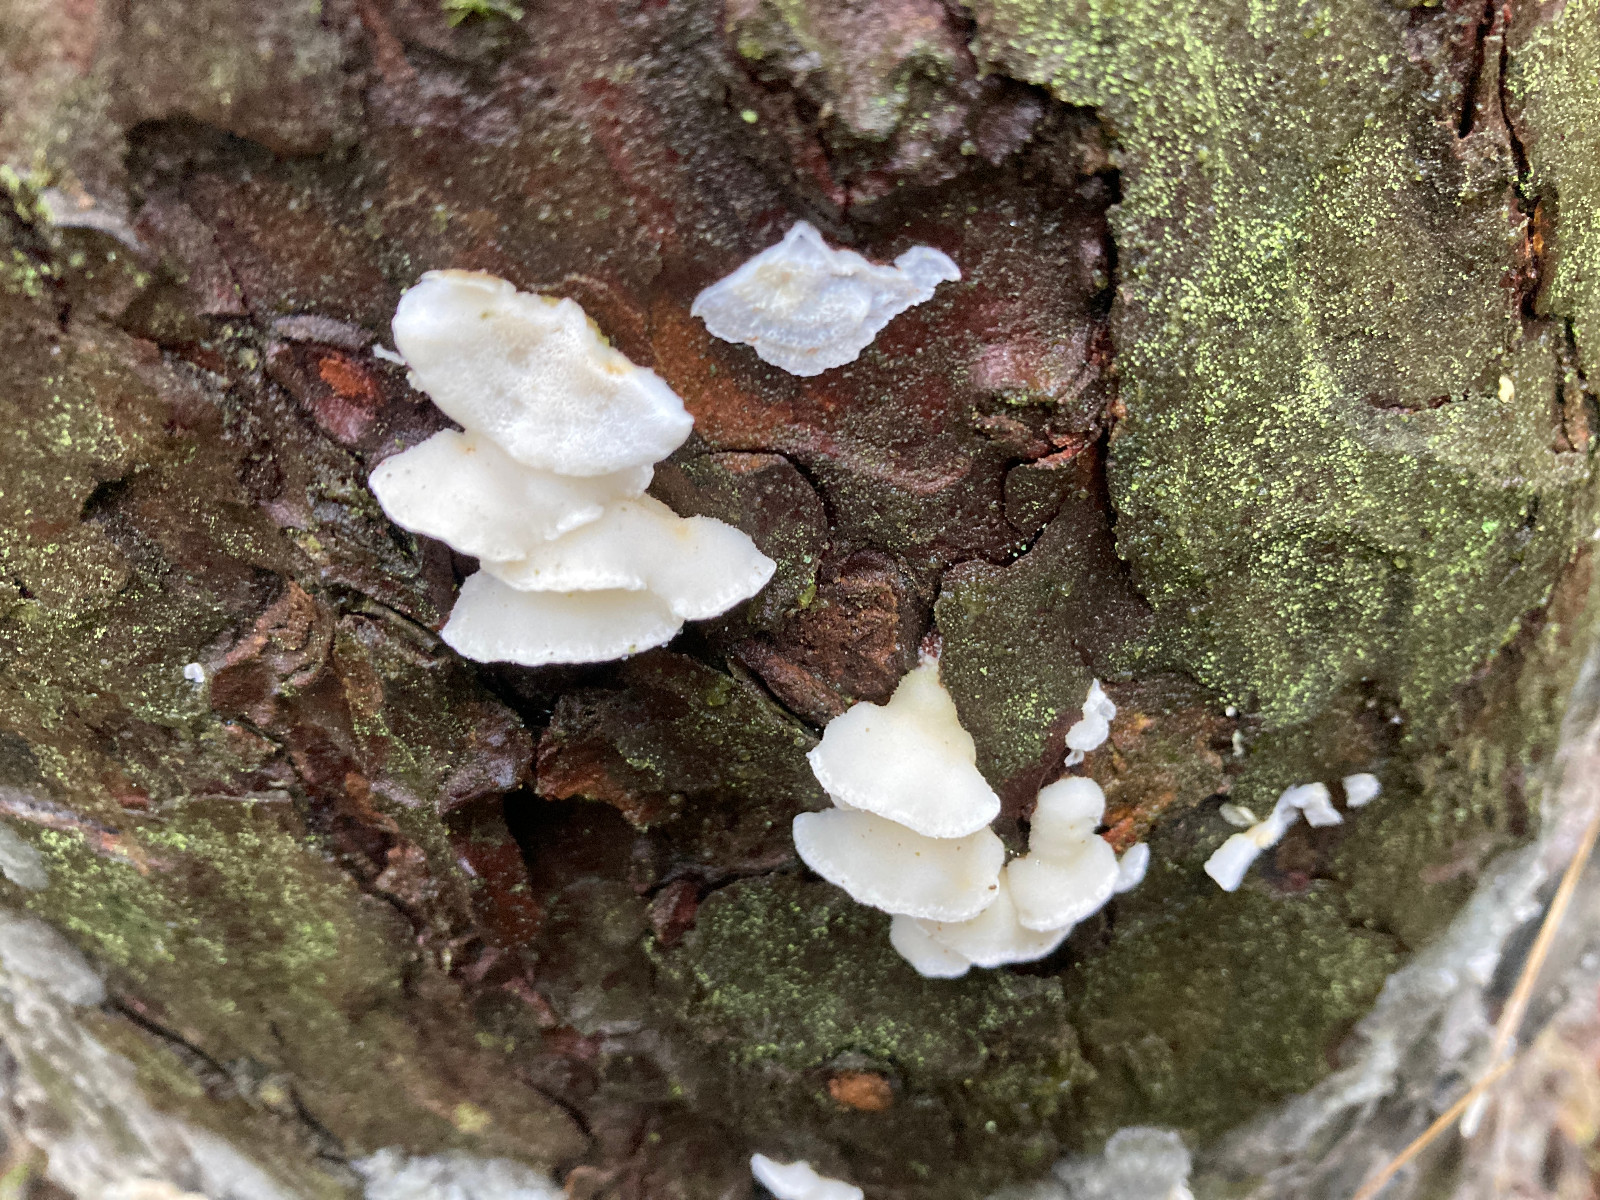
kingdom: Fungi
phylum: Basidiomycota
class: Agaricomycetes
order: Polyporales
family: Incrustoporiaceae
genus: Skeletocutis
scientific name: Skeletocutis amorpha
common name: orange krystalporesvamp
